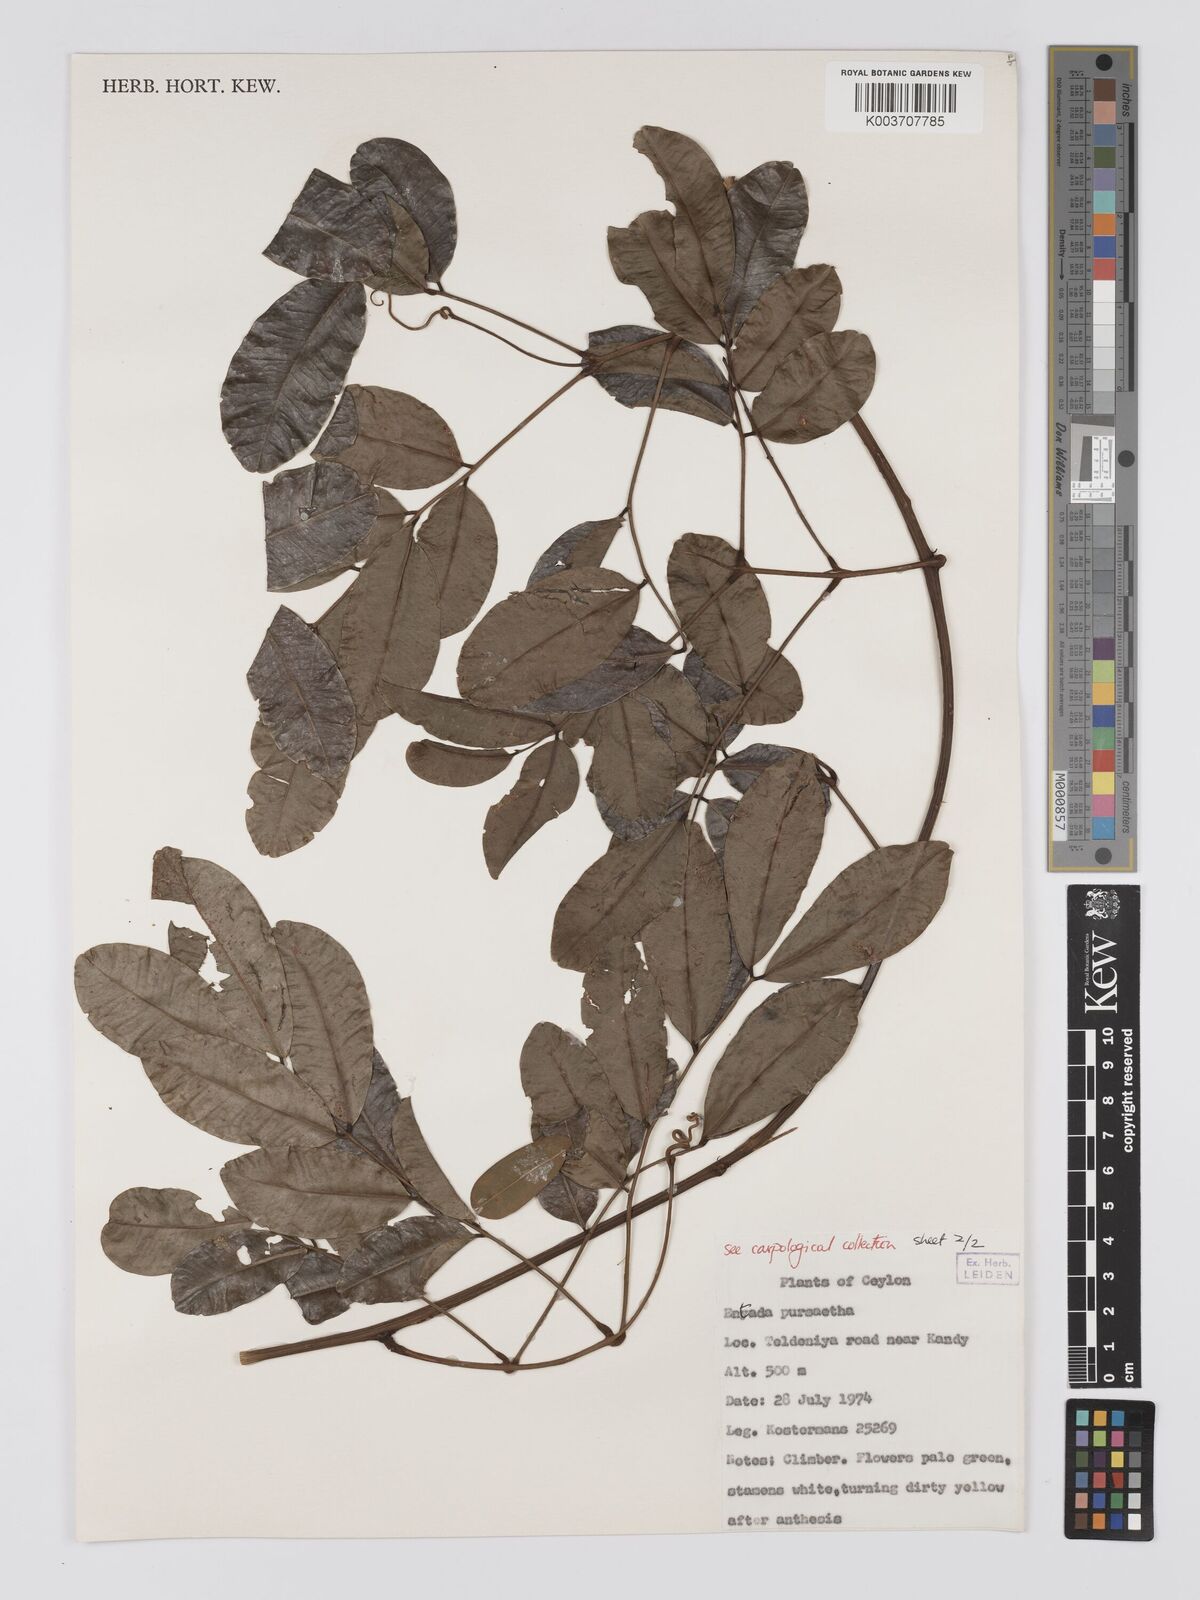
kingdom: Plantae
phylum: Tracheophyta
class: Magnoliopsida
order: Fabales
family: Fabaceae
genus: Entada
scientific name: Entada phaseoloides
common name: Matchbox-bean
